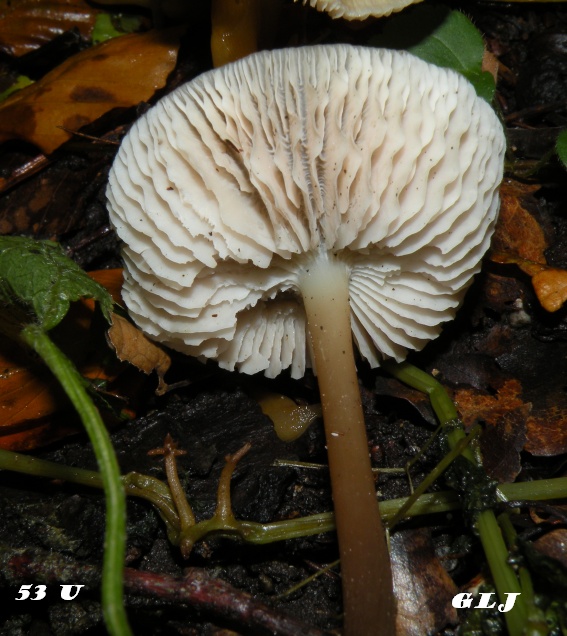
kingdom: Fungi
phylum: Basidiomycota
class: Agaricomycetes
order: Agaricales
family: Mycenaceae
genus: Mycena
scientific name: Mycena vitilis
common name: blankstokket huesvamp
